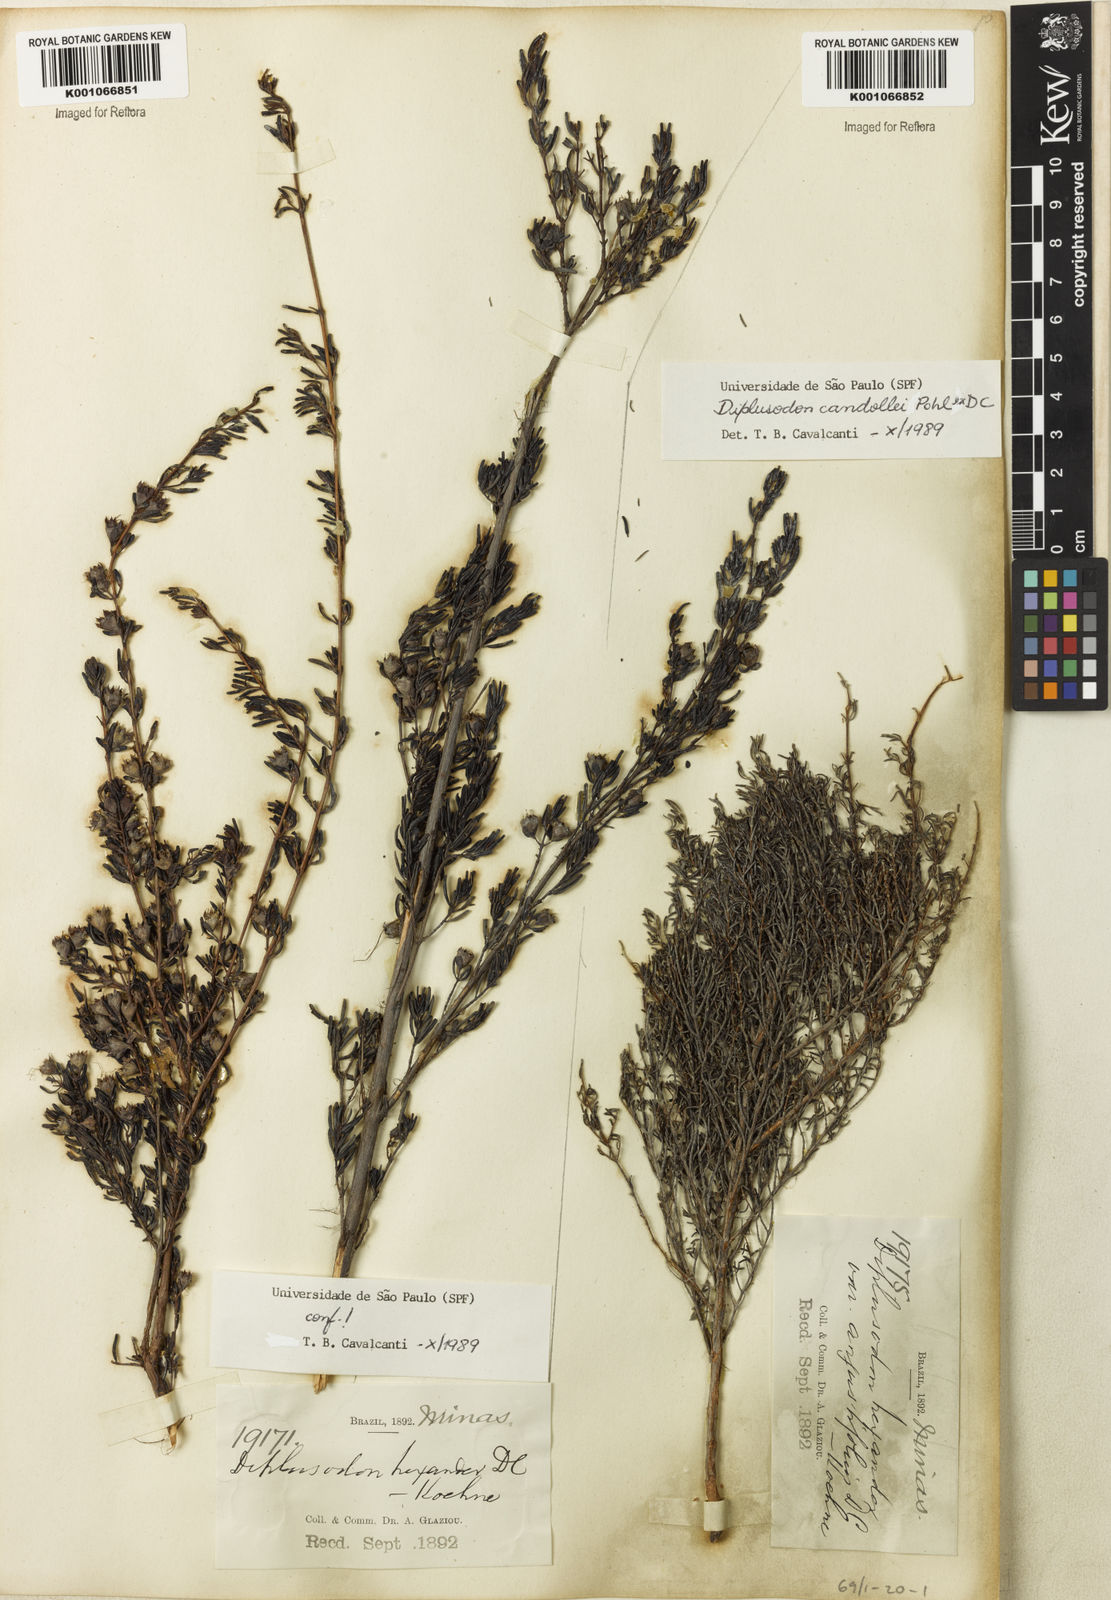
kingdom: Plantae
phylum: Tracheophyta
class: Magnoliopsida
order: Myrtales
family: Lythraceae
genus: Diplusodon
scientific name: Diplusodon hexander
